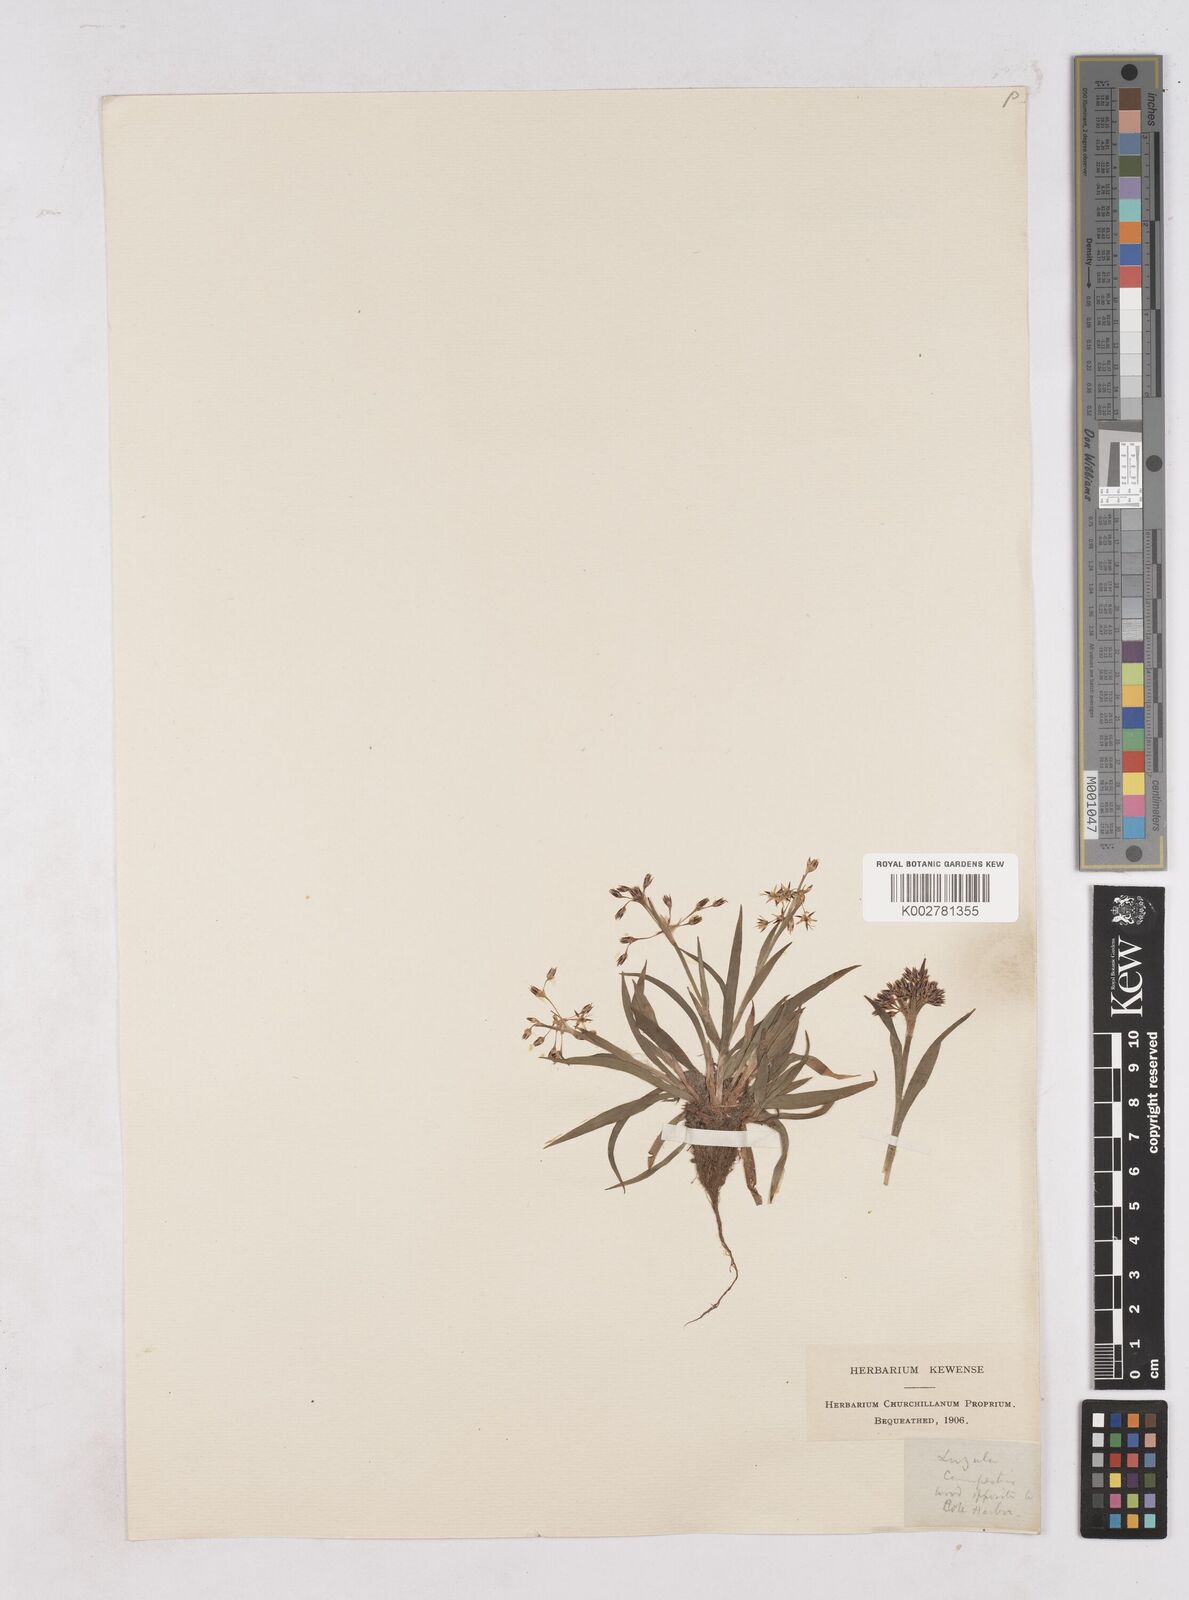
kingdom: Plantae
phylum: Tracheophyta
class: Liliopsida
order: Poales
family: Juncaceae
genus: Luzula
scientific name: Luzula pilosa
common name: Hairy wood-rush
